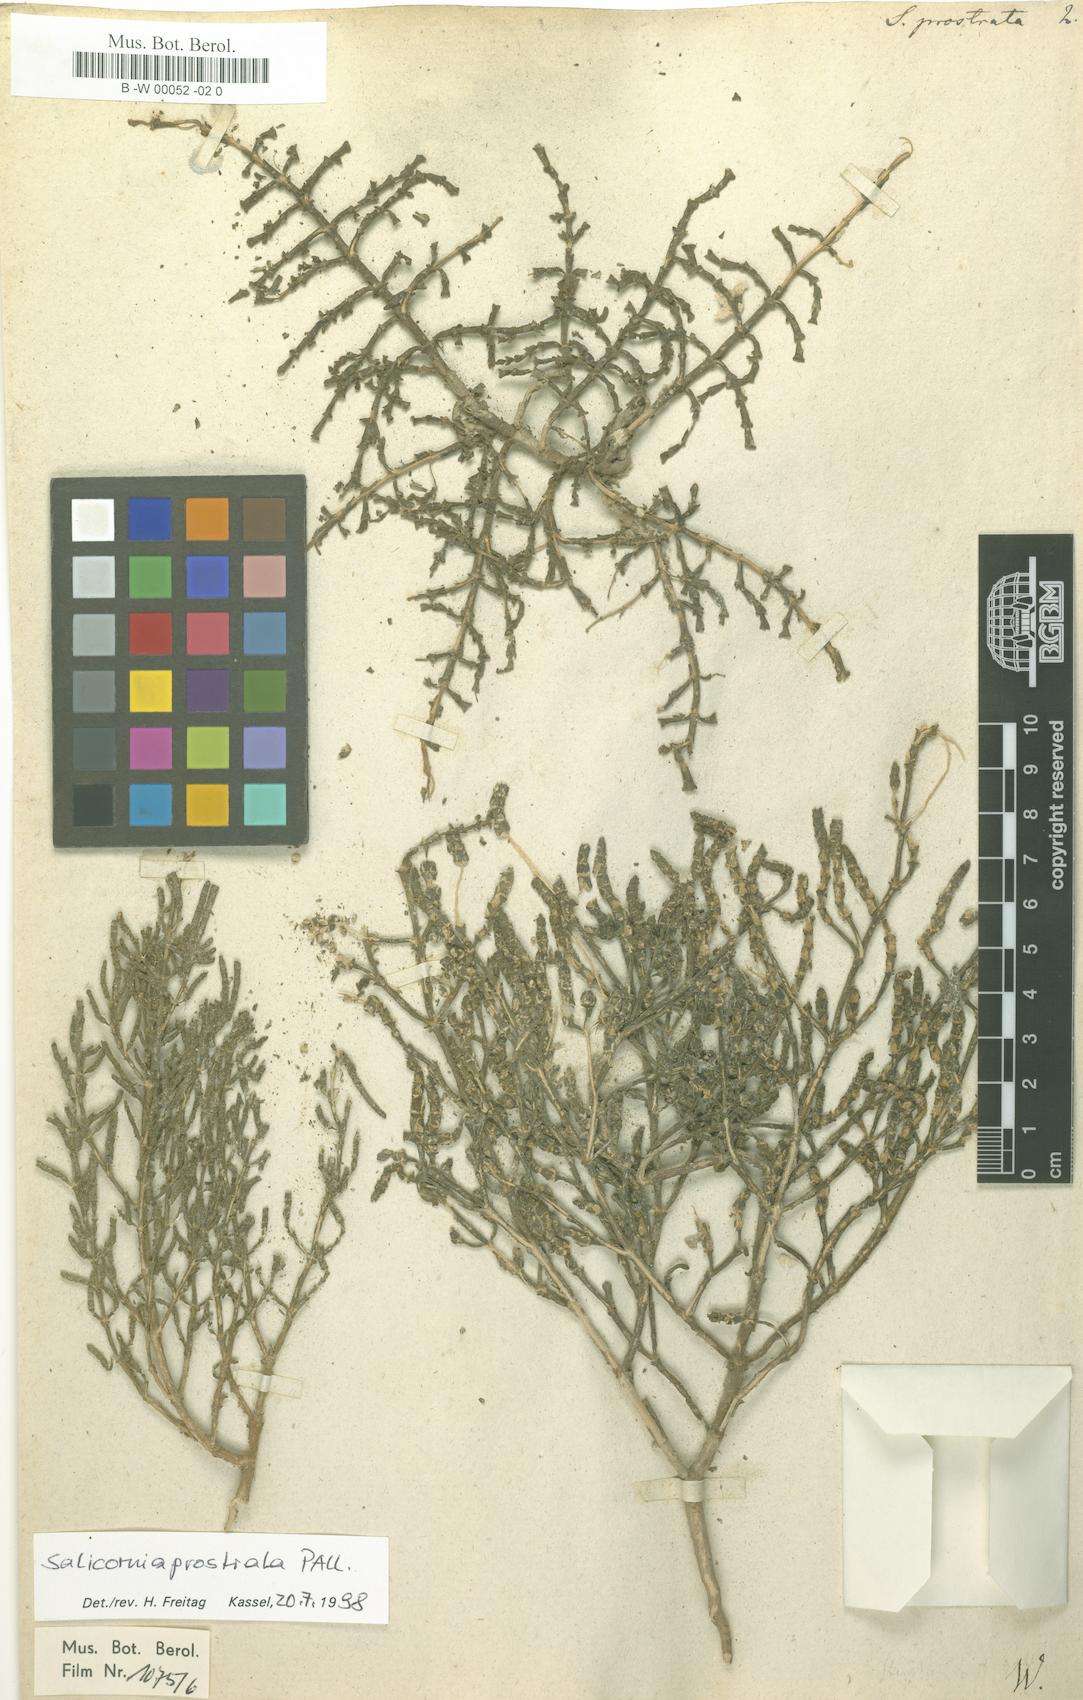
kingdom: Plantae
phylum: Tracheophyta
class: Magnoliopsida
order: Caryophyllales
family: Amaranthaceae
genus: Salicornia
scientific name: Salicornia perennans
